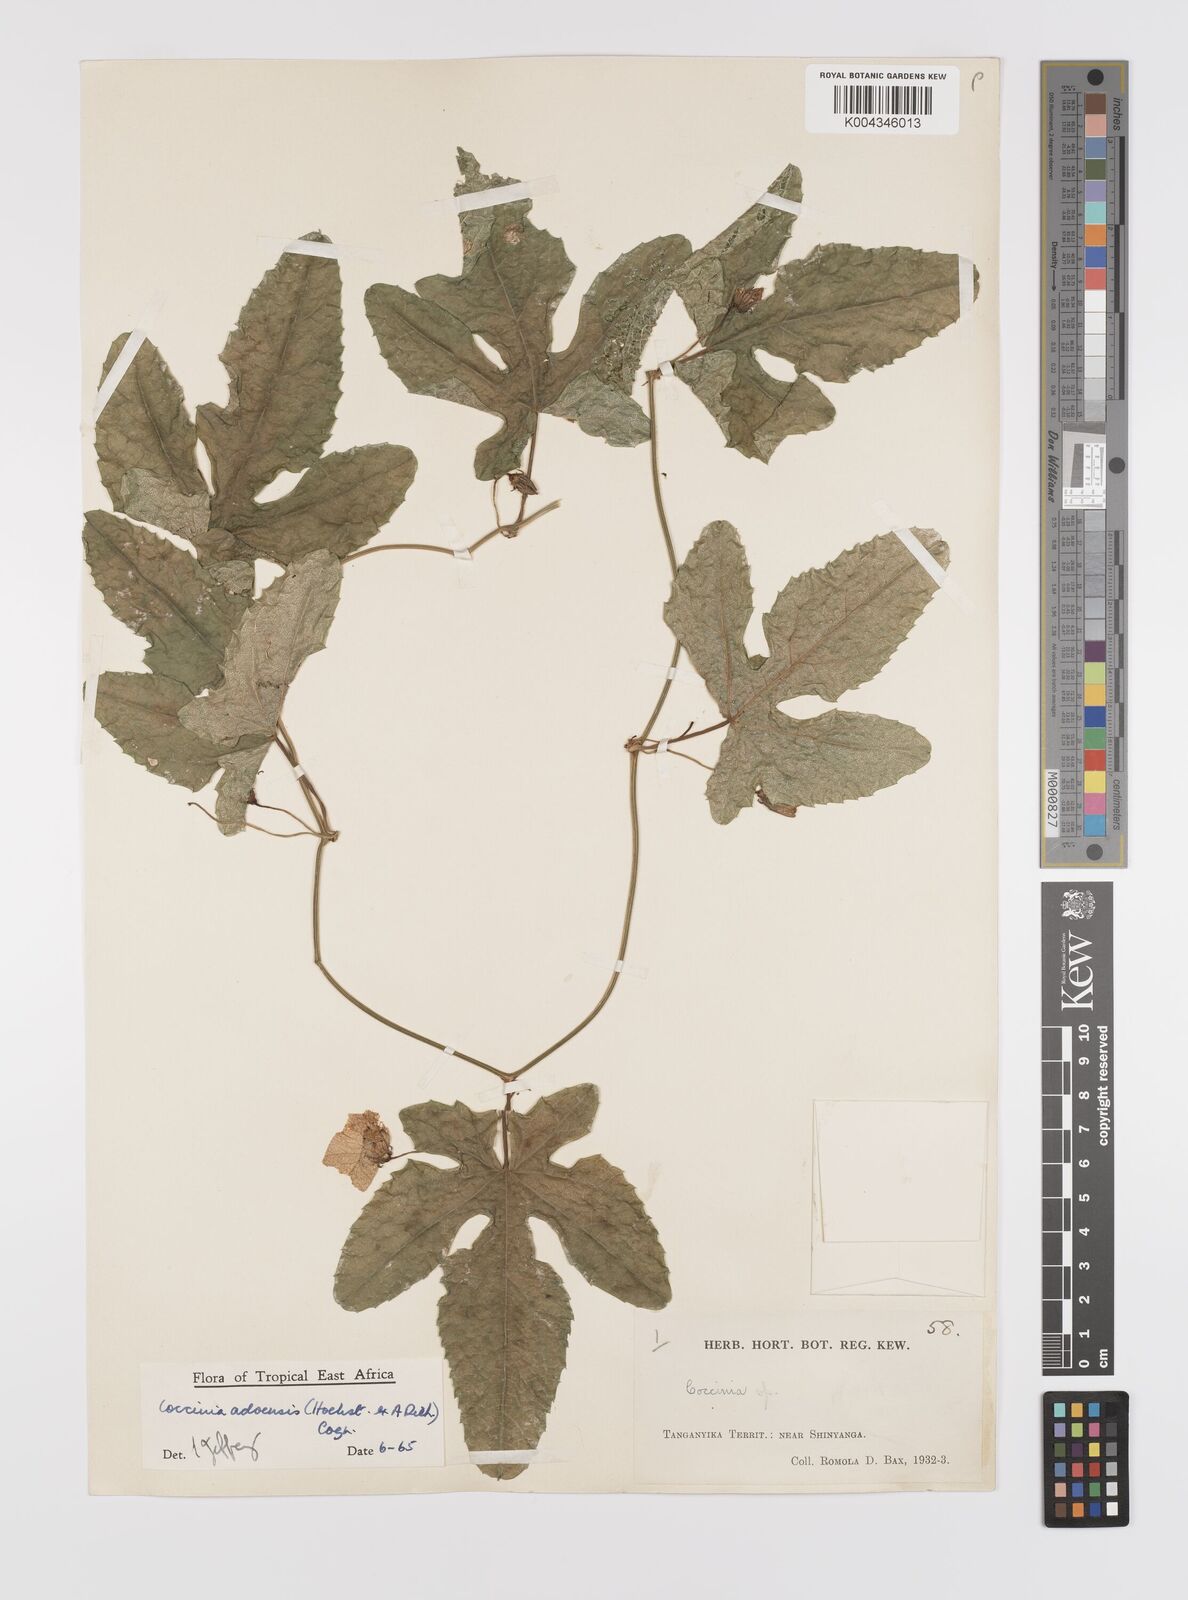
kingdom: Plantae
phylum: Tracheophyta
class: Magnoliopsida
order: Cucurbitales
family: Cucurbitaceae
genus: Coccinia
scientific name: Coccinia adoensis
